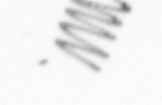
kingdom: Chromista
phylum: Ochrophyta
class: Bacillariophyceae
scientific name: Bacillariophyceae
